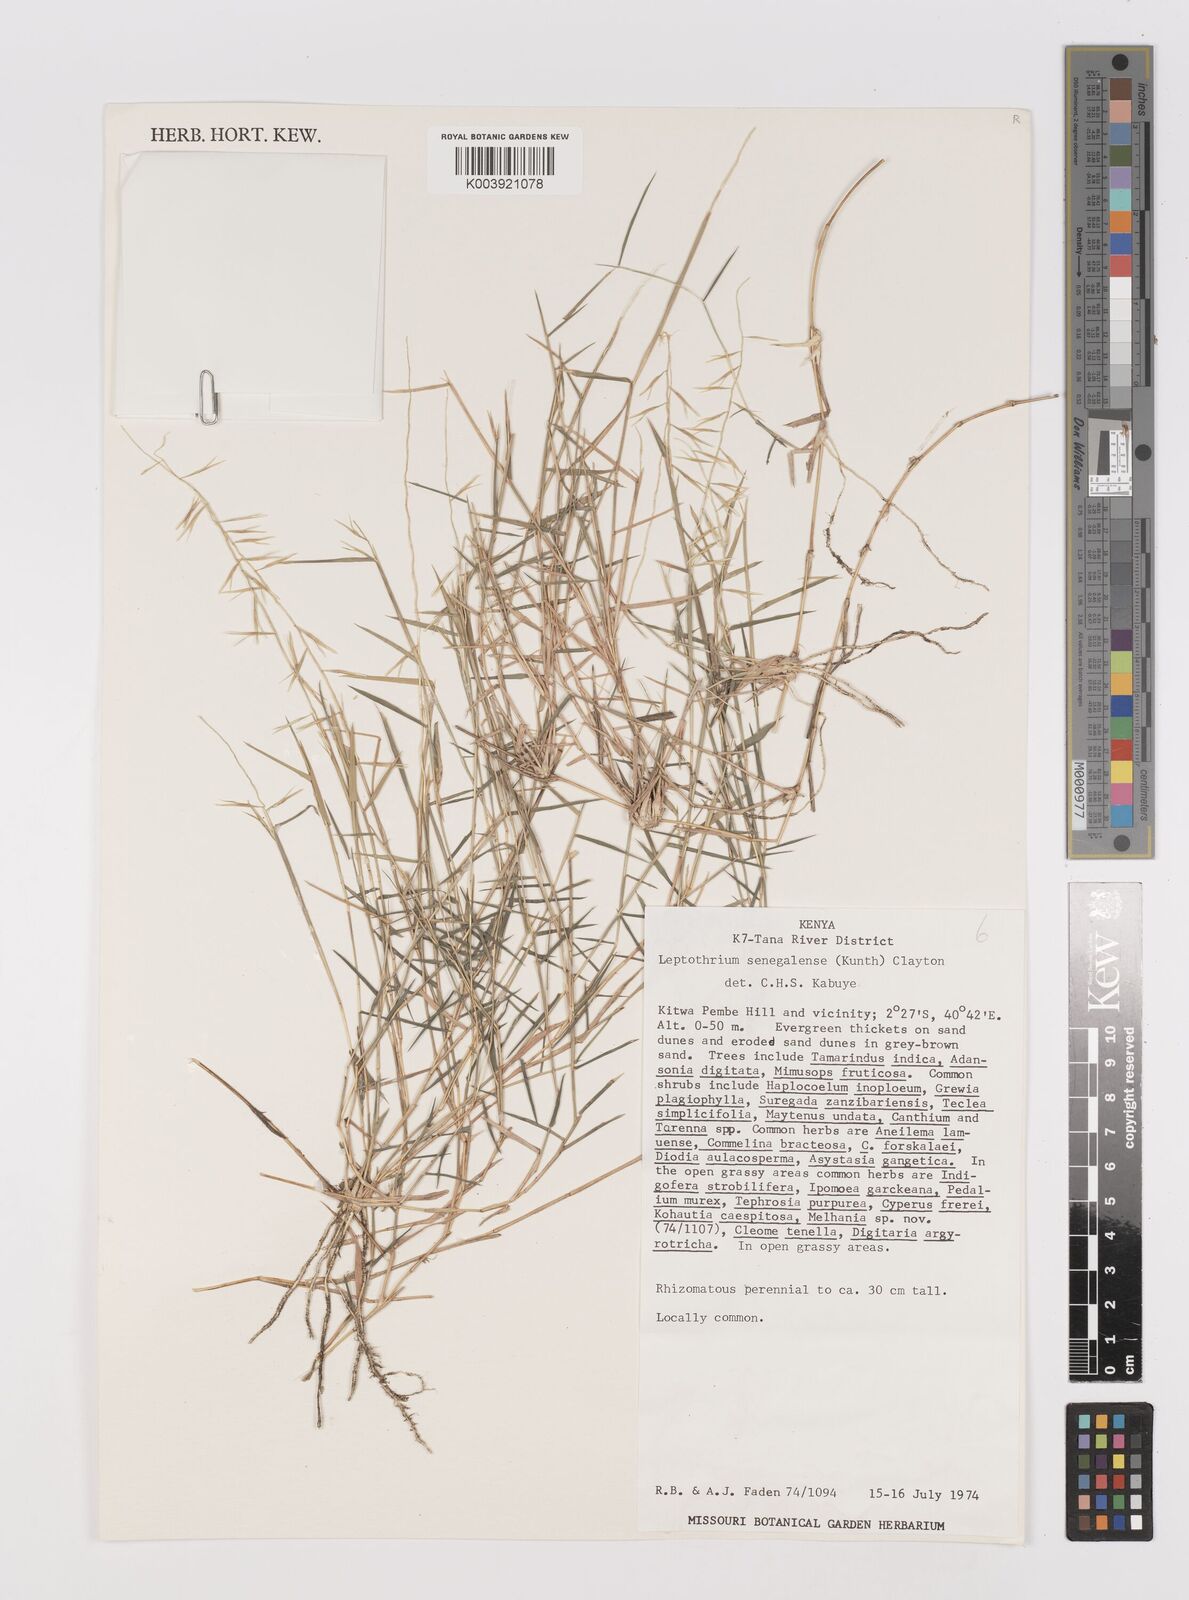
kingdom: Plantae
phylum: Tracheophyta
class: Liliopsida
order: Poales
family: Poaceae
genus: Leptothrium
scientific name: Leptothrium senegalense
